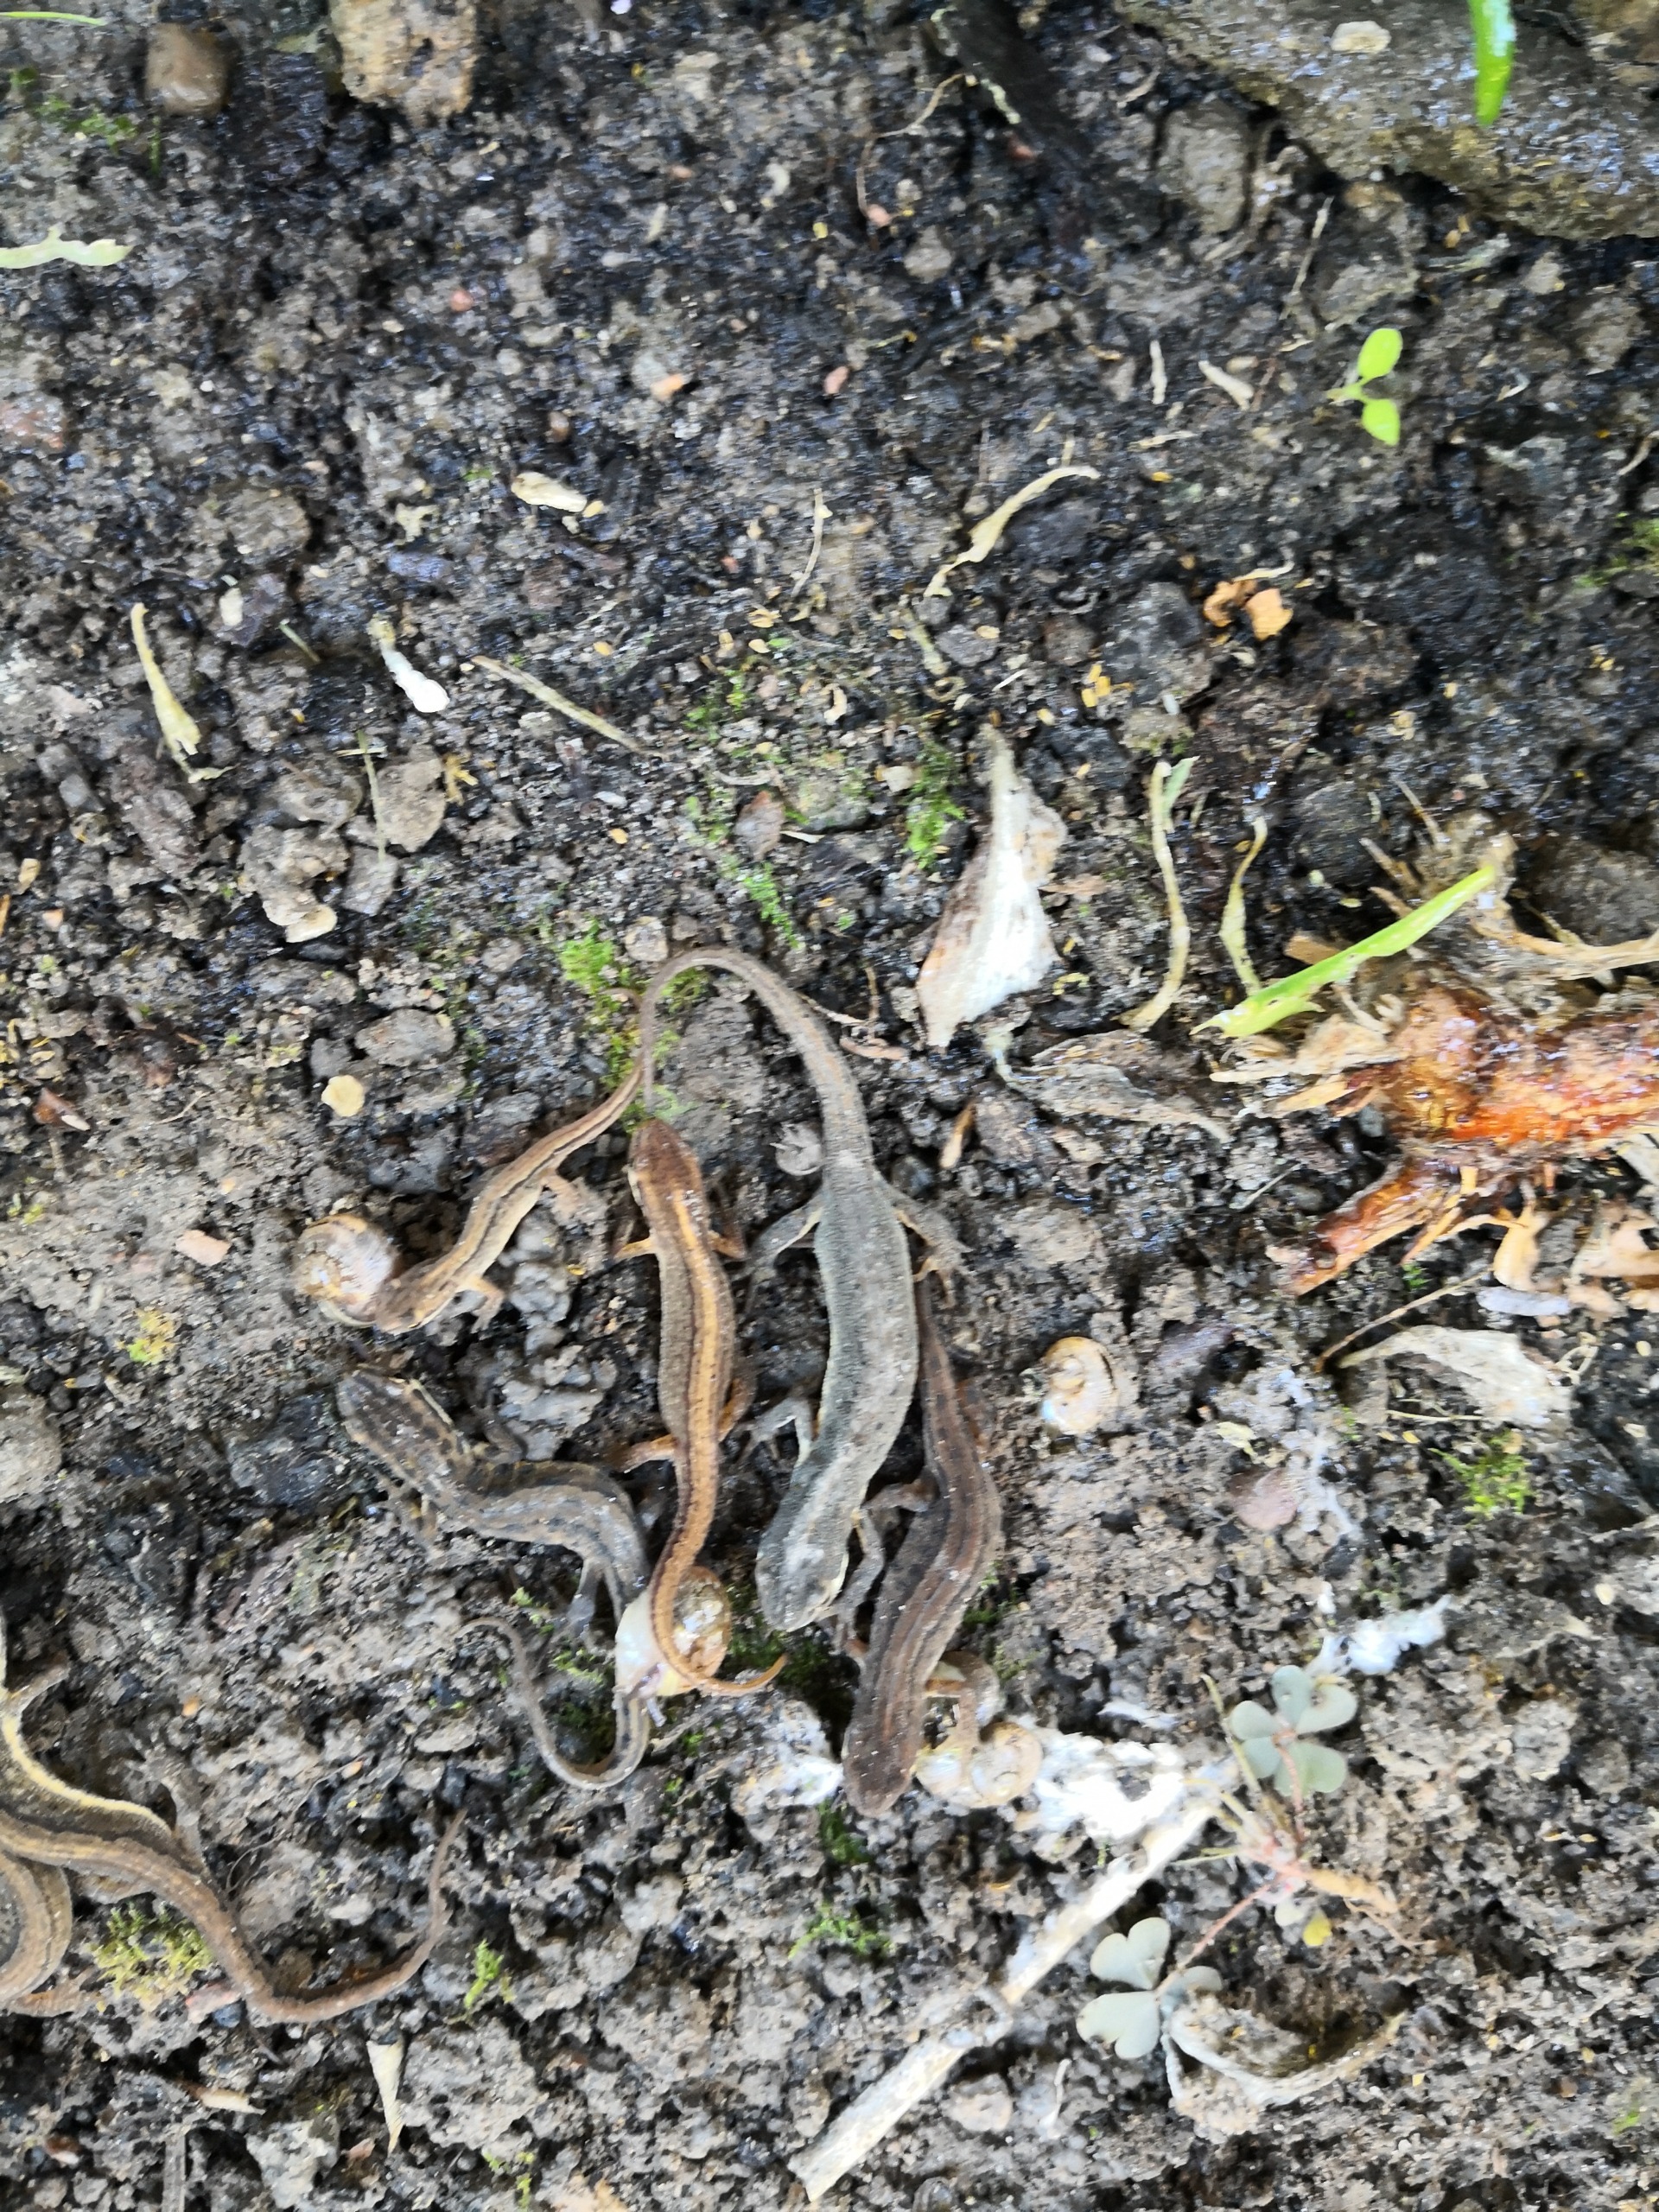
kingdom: Animalia
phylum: Chordata
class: Amphibia
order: Caudata
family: Salamandridae
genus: Lissotriton
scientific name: Lissotriton vulgaris
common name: Lille vandsalamander
